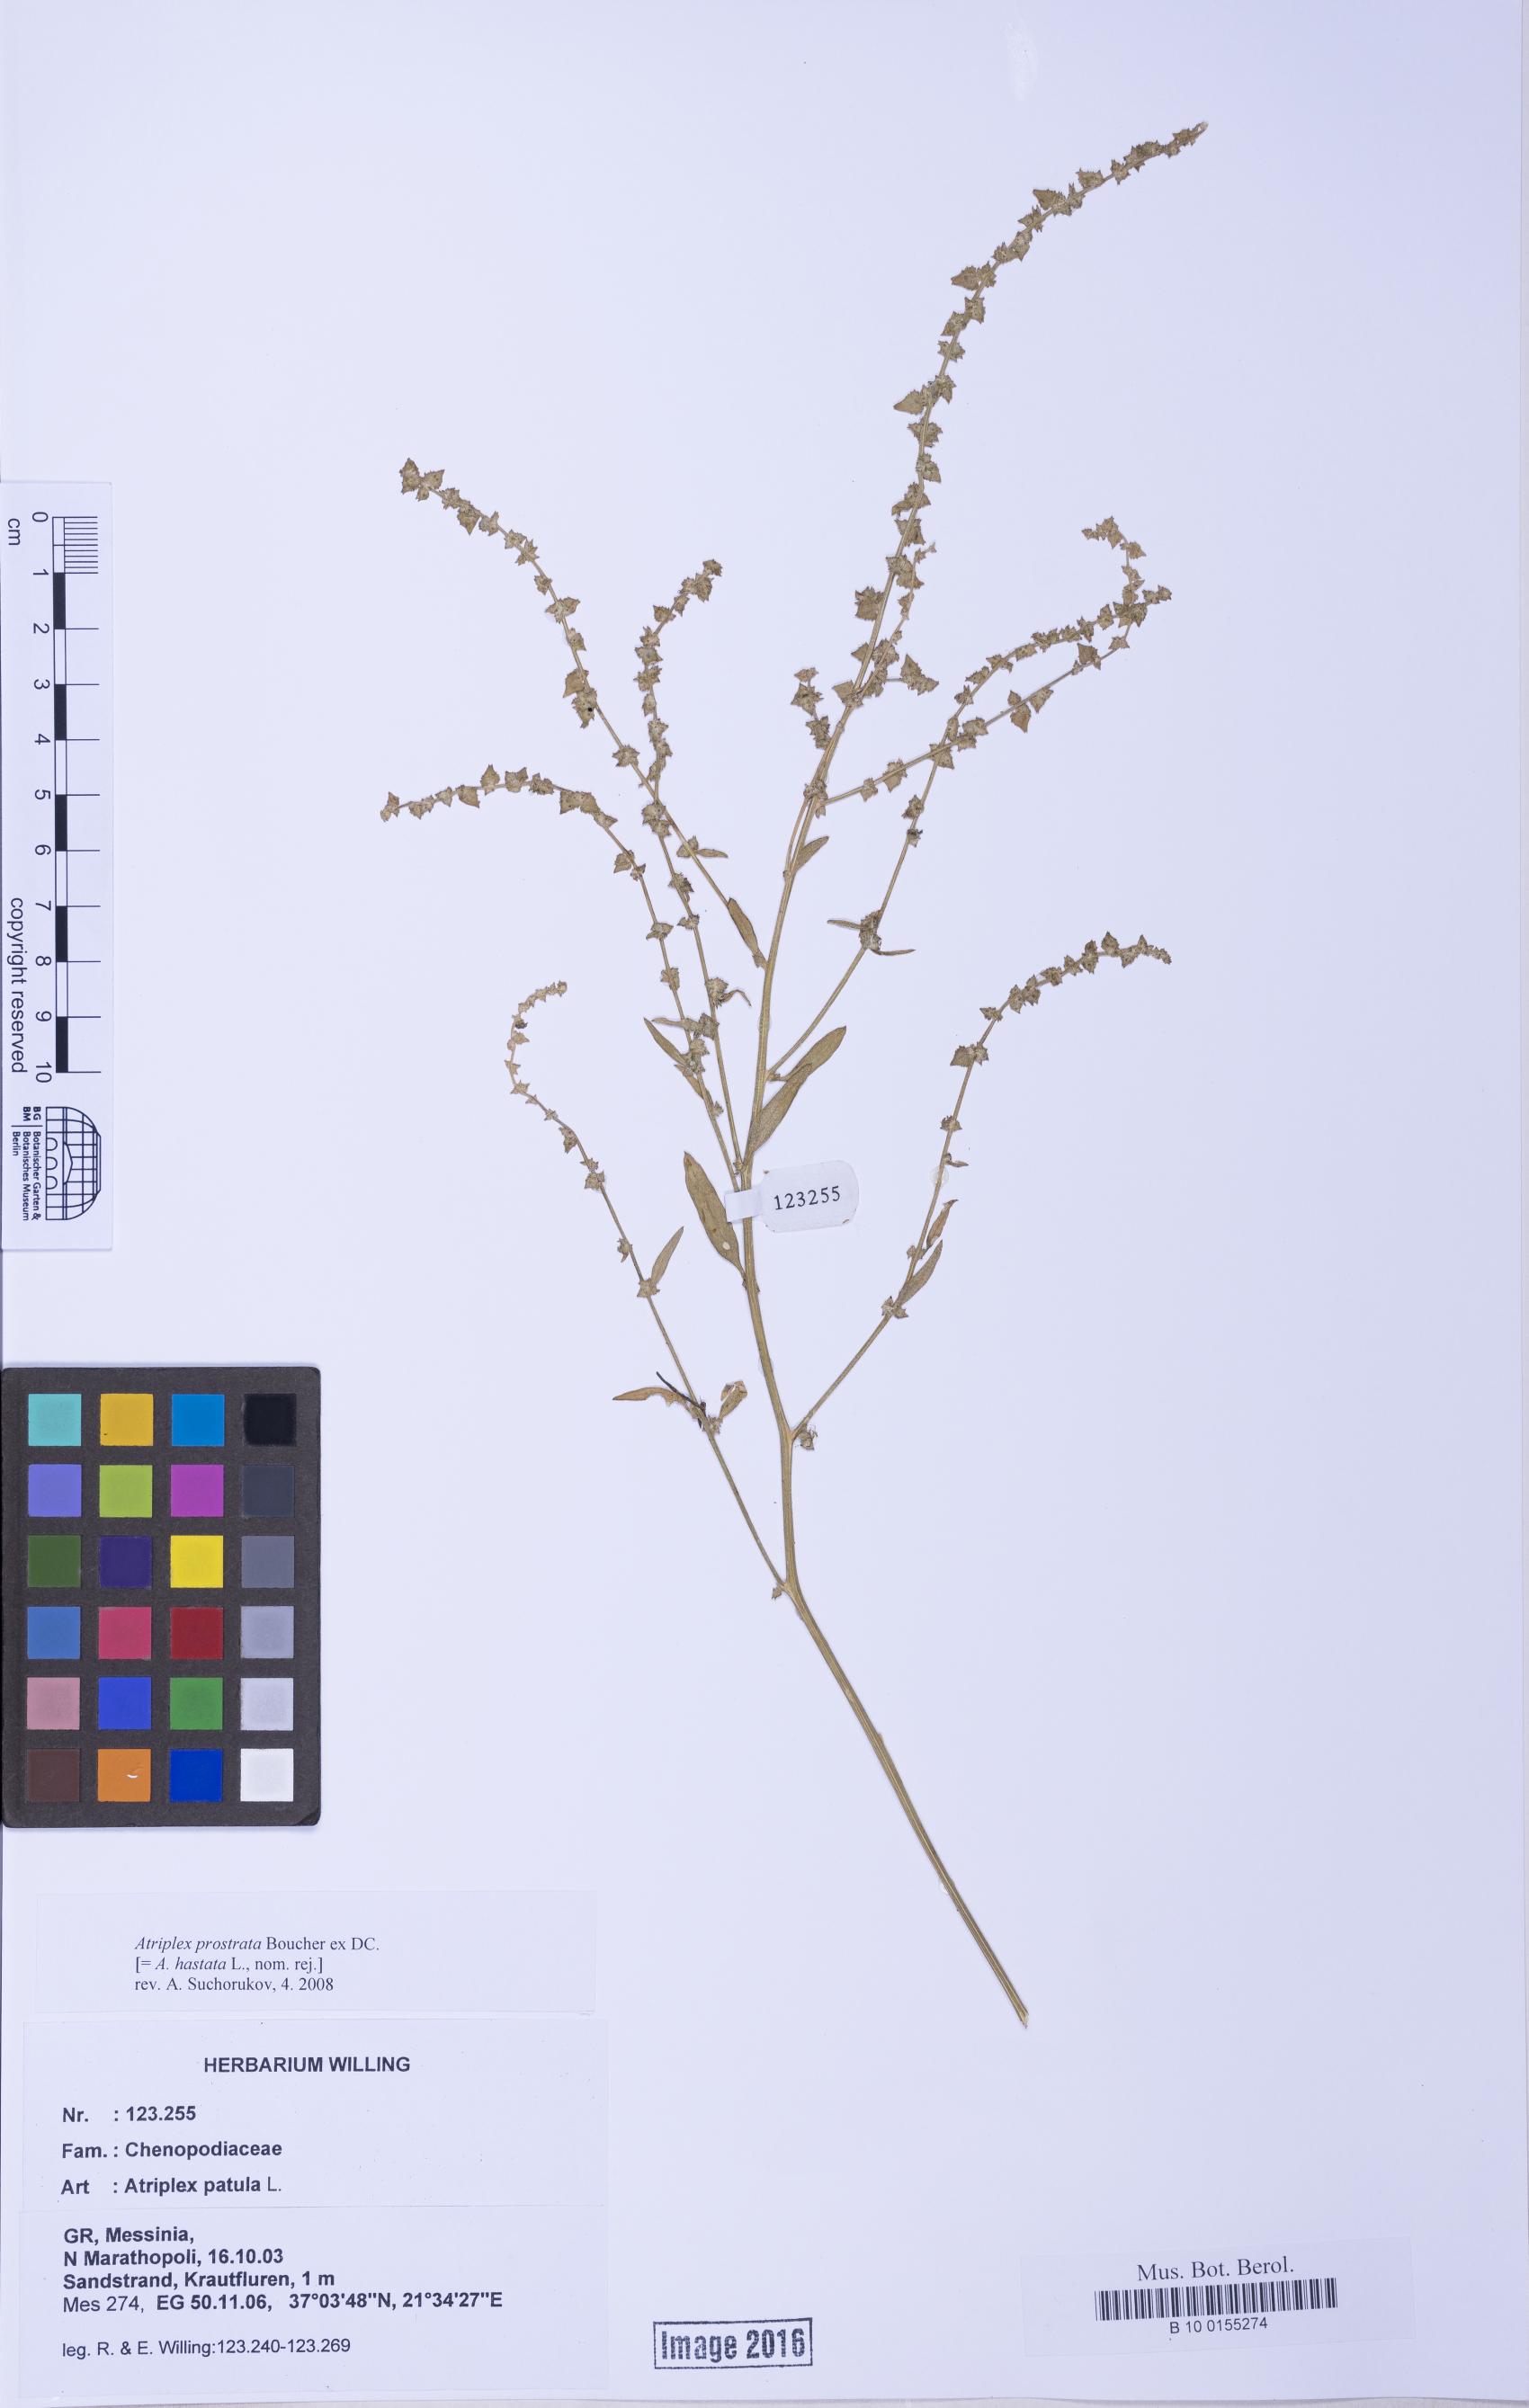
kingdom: Plantae
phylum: Tracheophyta
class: Magnoliopsida
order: Caryophyllales
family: Amaranthaceae
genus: Atriplex
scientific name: Atriplex prostrata
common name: Spear-leaved orache
